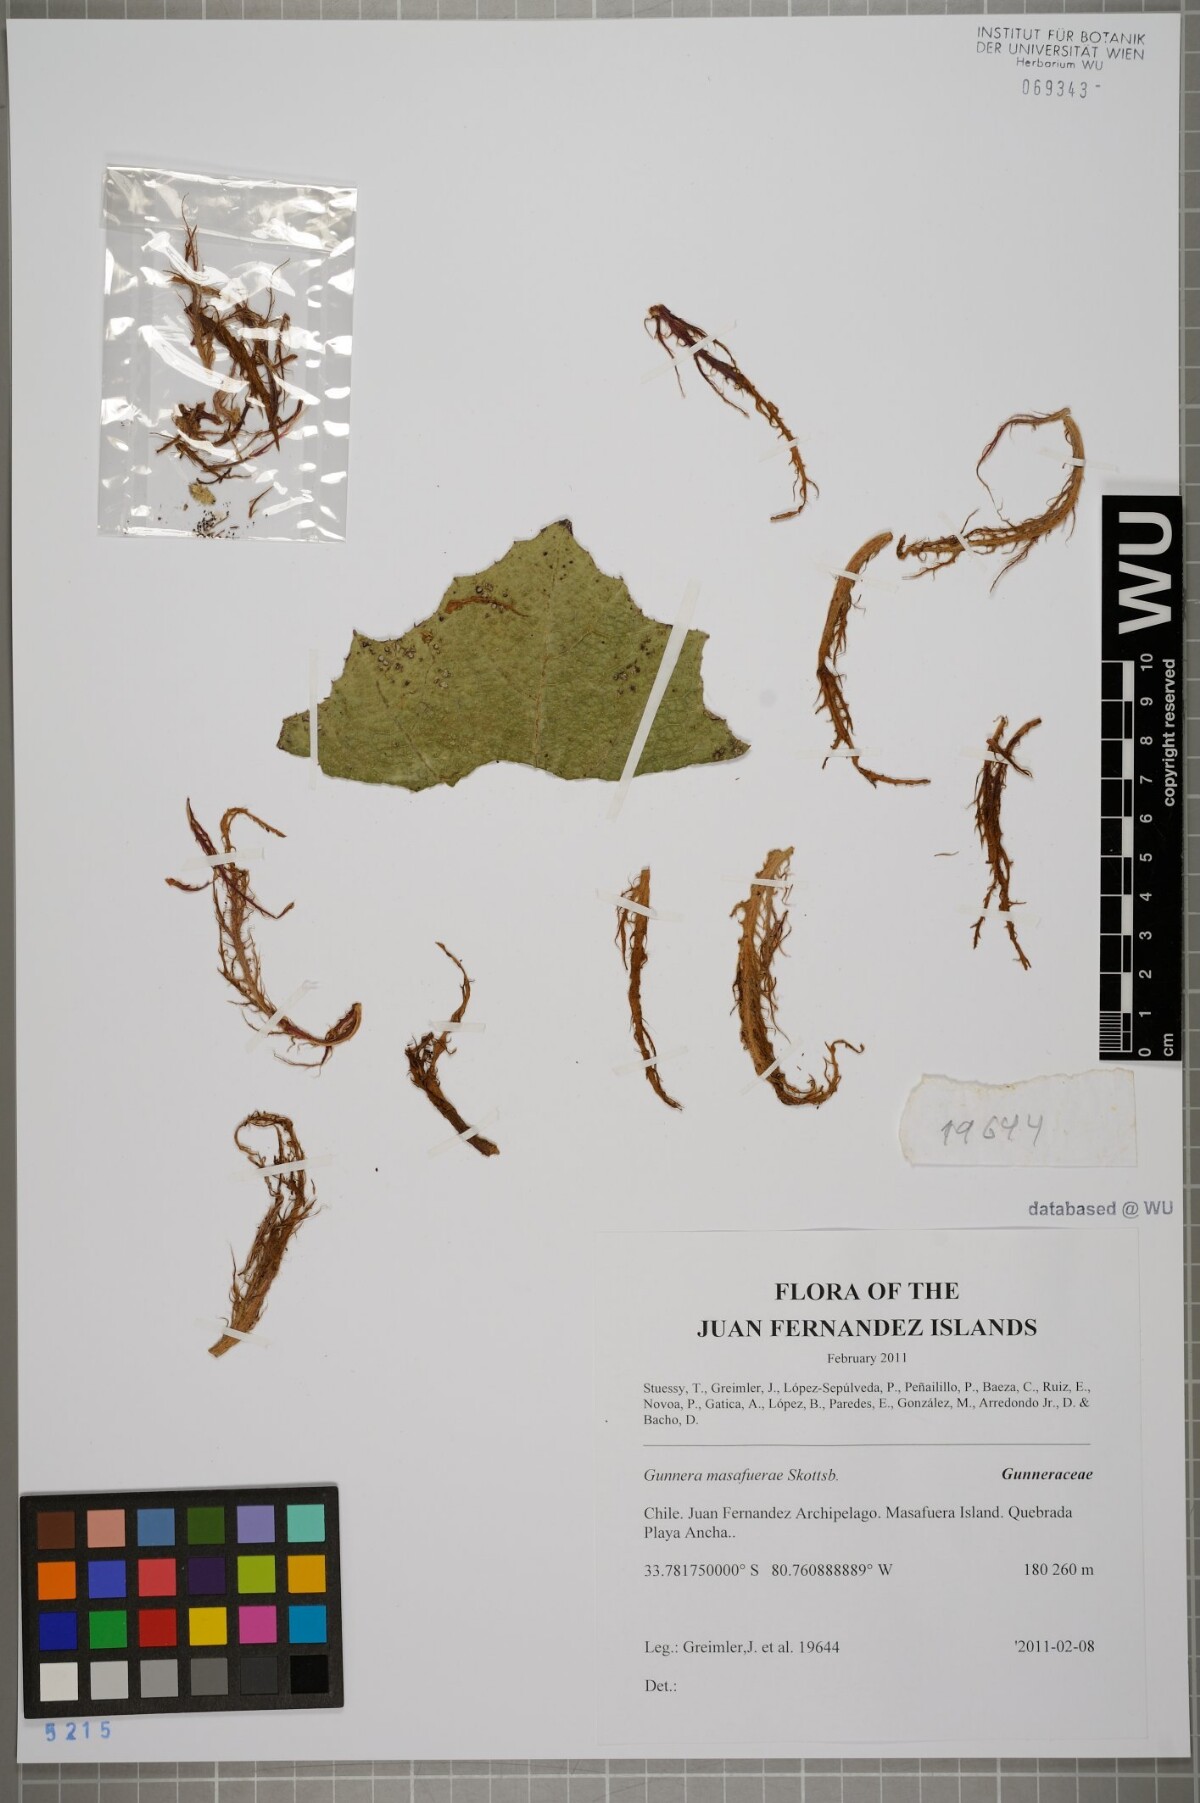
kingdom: Plantae
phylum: Tracheophyta
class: Magnoliopsida
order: Gunnerales
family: Gunneraceae
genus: Gunnera
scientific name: Gunnera masafuerae
